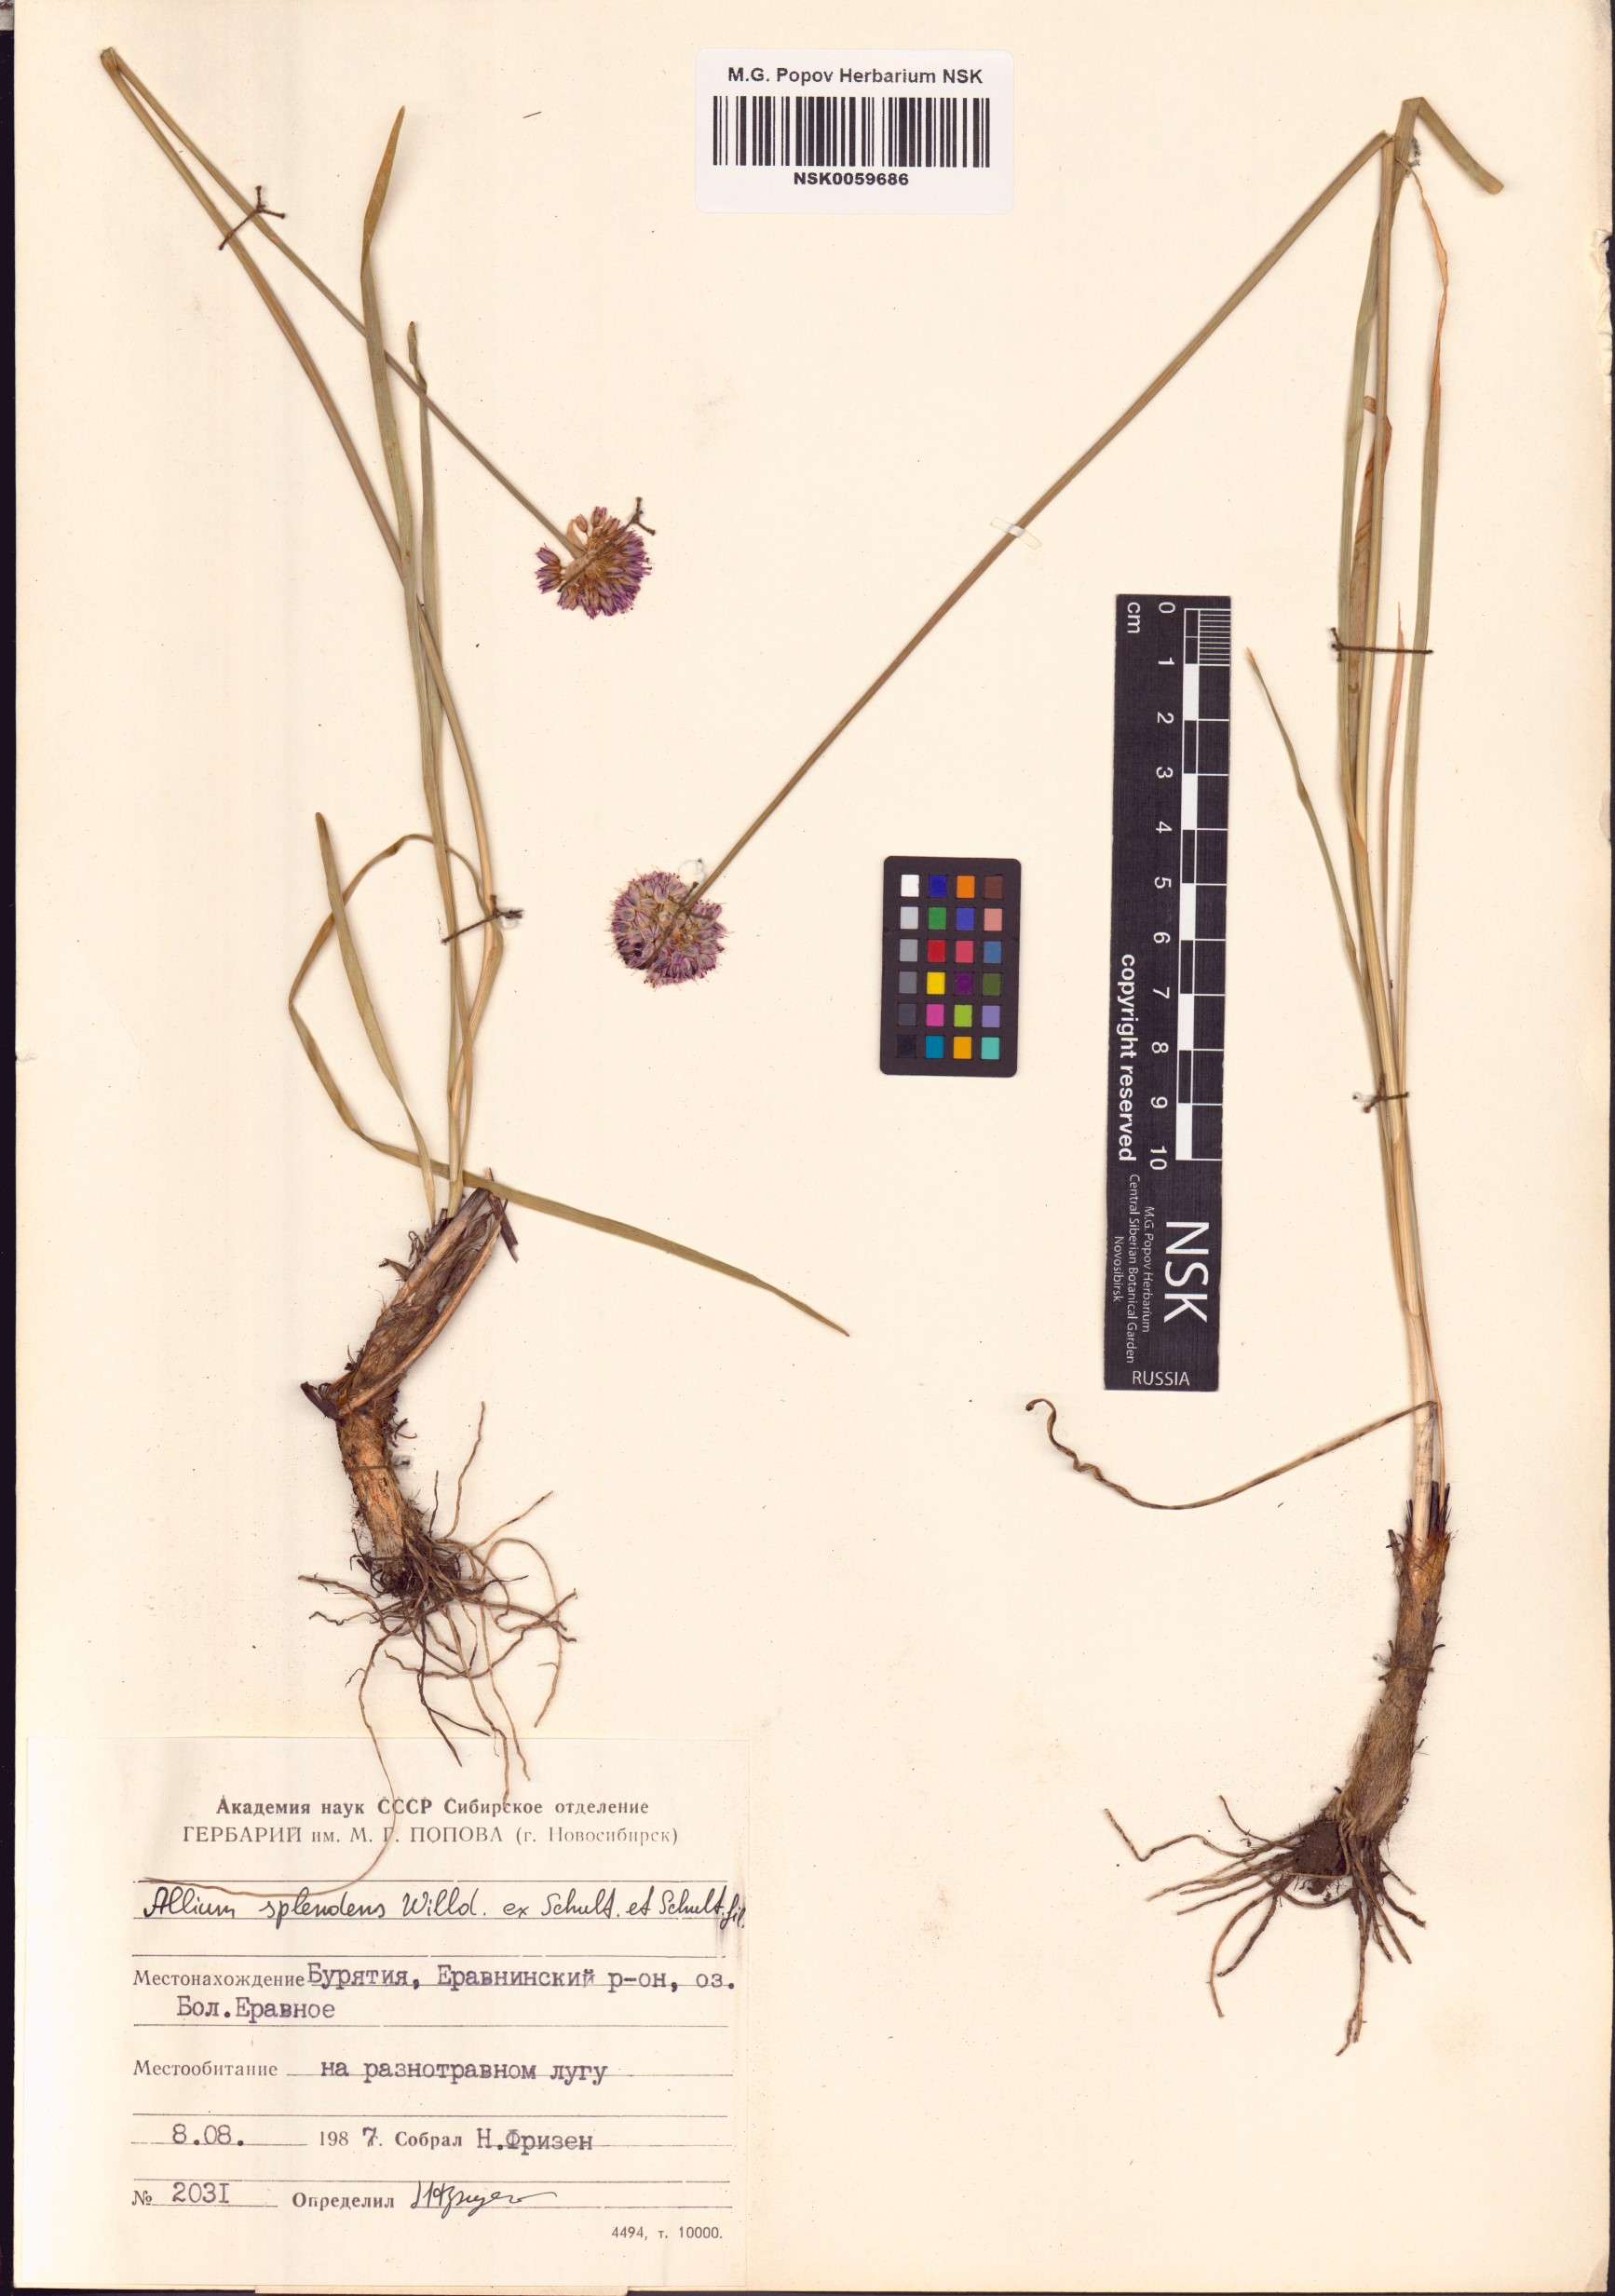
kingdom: Plantae
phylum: Tracheophyta
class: Liliopsida
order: Asparagales
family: Amaryllidaceae
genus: Allium
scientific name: Allium splendens
